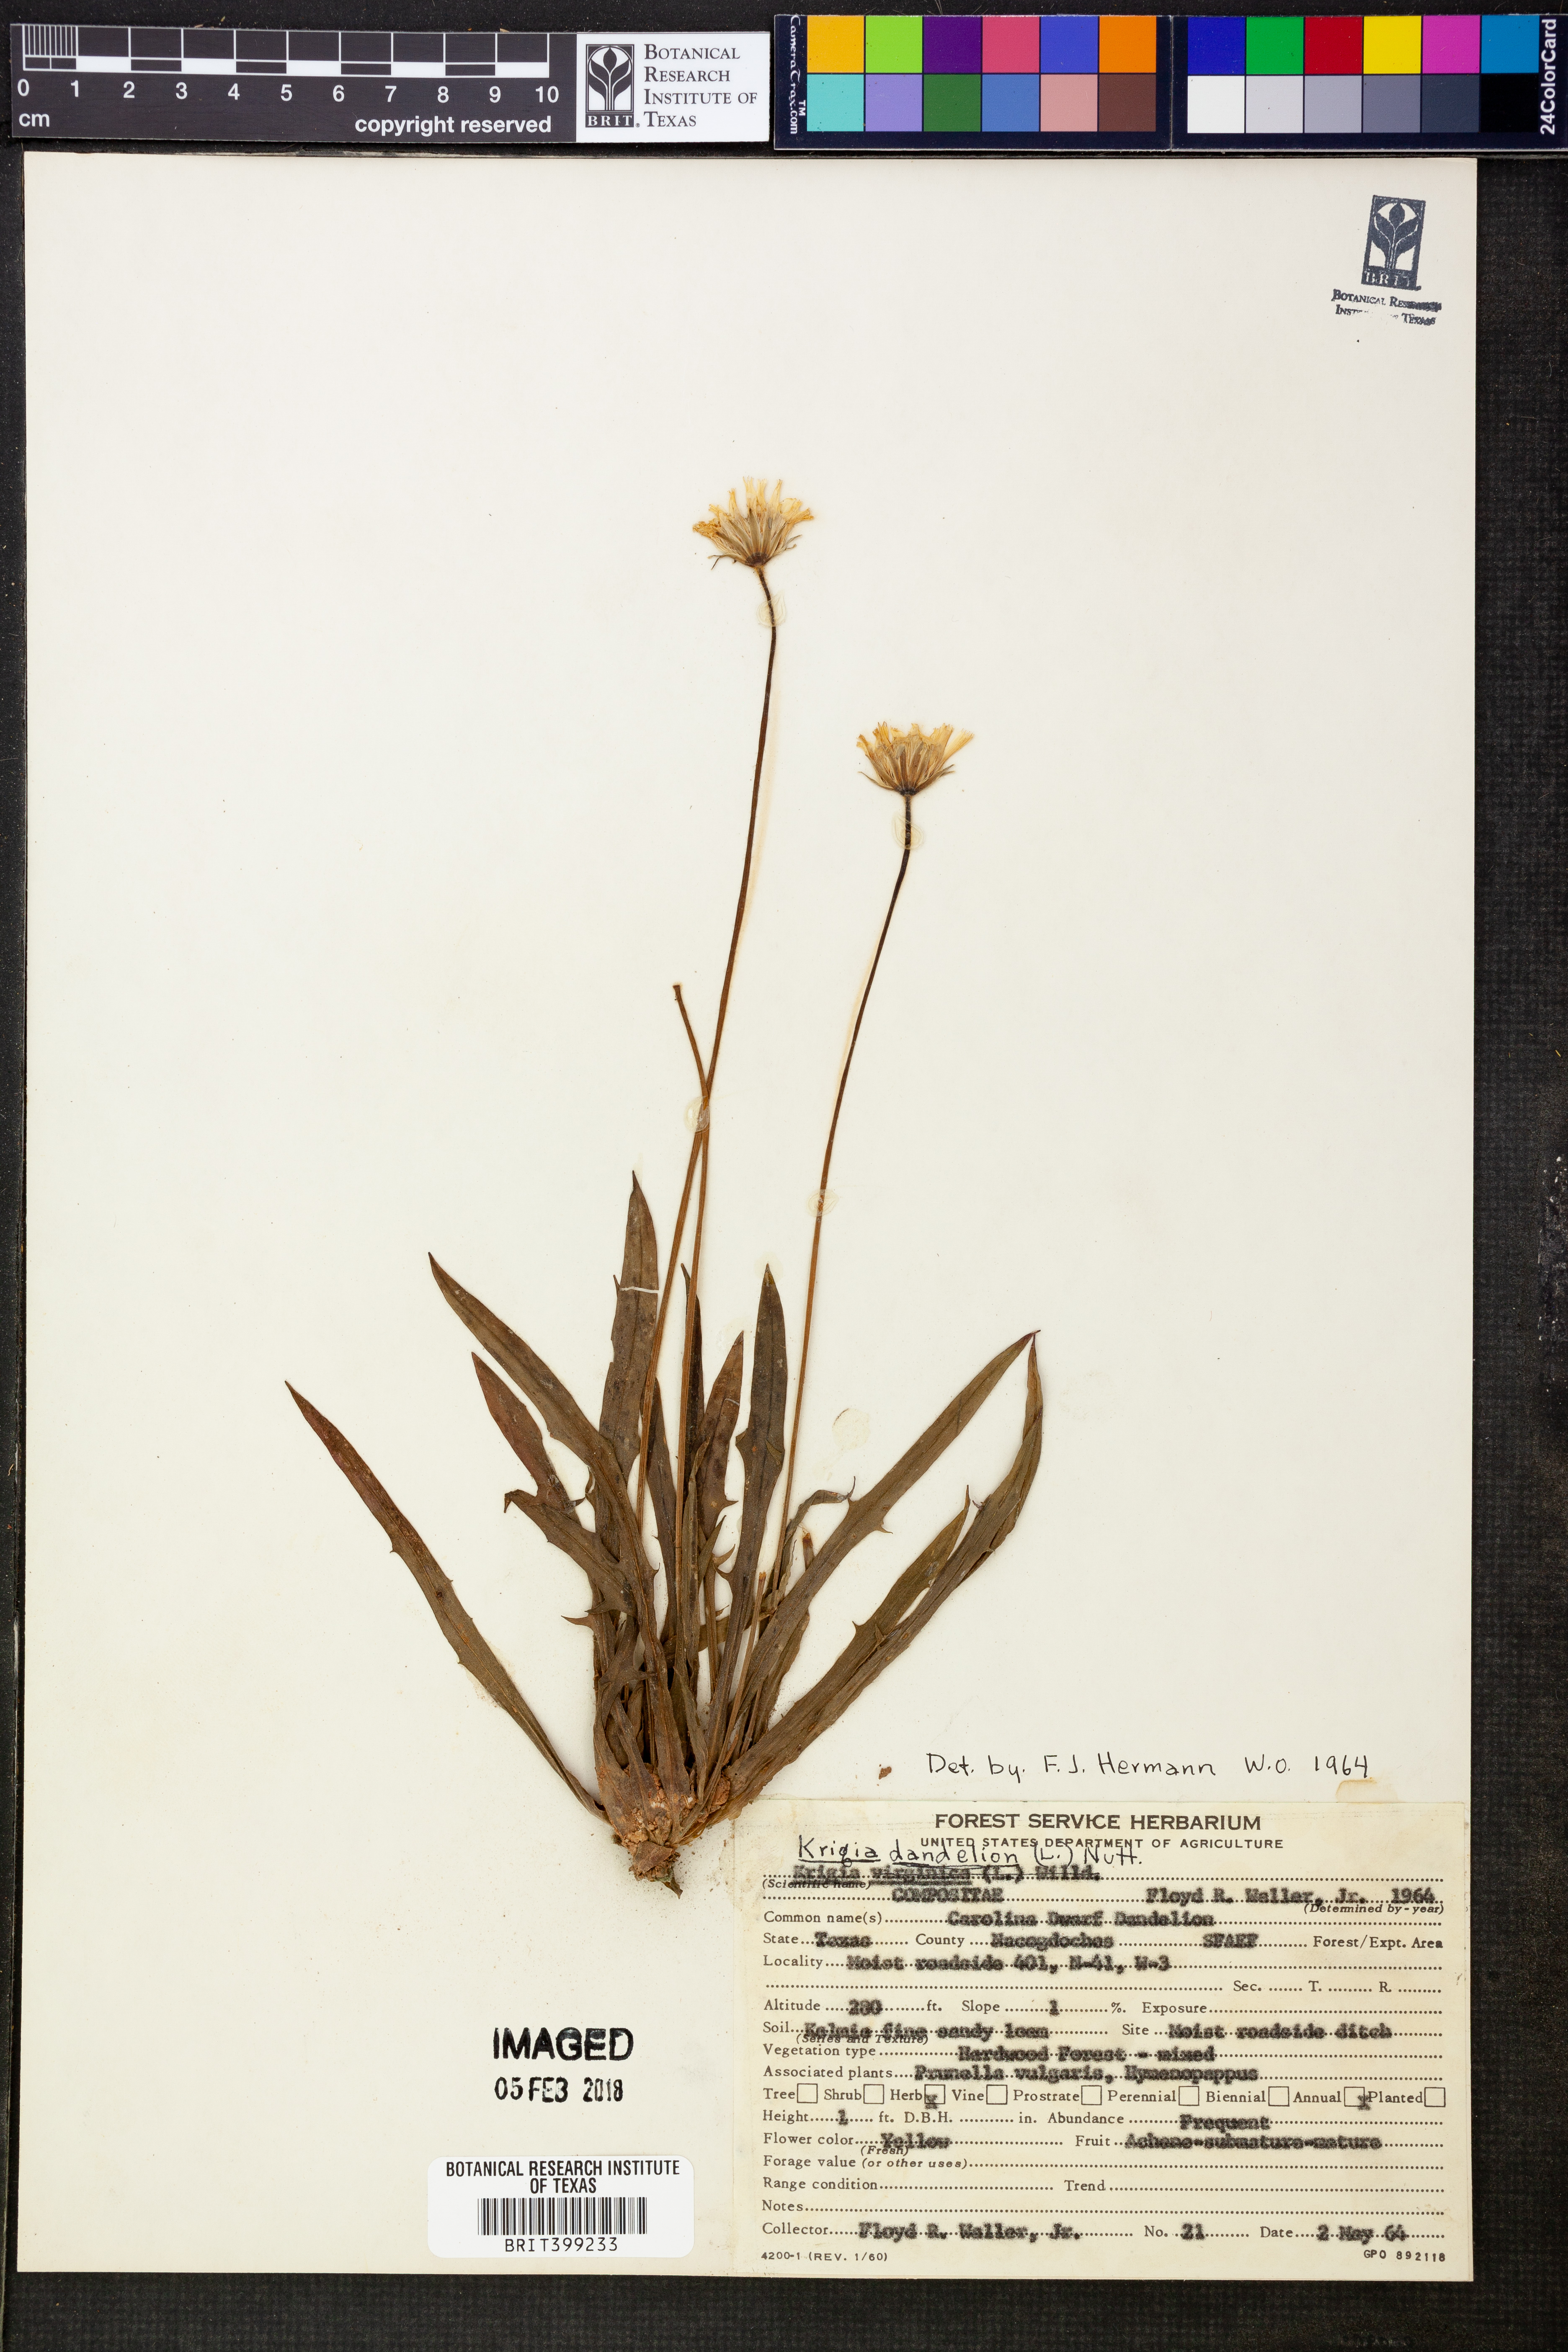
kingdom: Plantae
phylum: Tracheophyta
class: Magnoliopsida
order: Asterales
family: Asteraceae
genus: Krigia
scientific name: Krigia dandelion
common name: Colonial dwarf-dandelion
